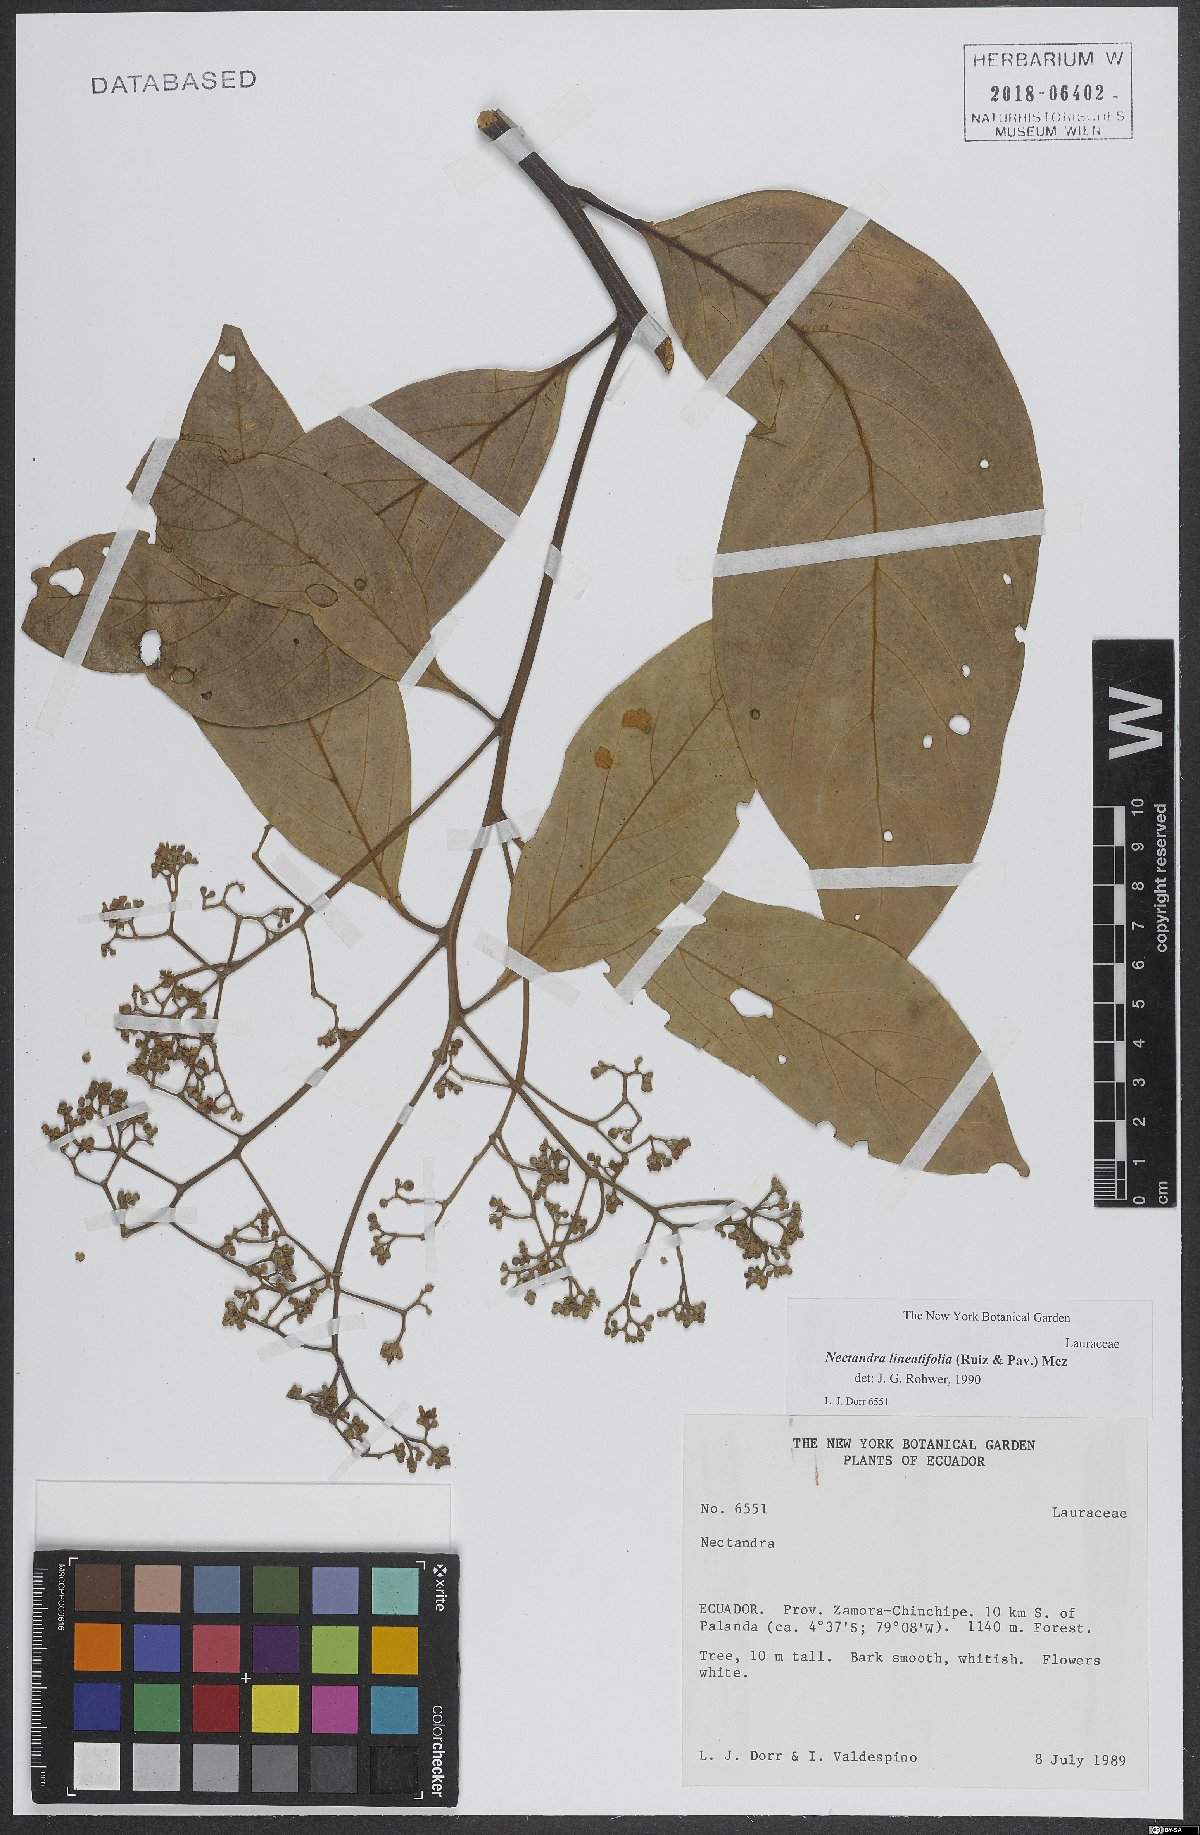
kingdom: Plantae
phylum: Tracheophyta
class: Magnoliopsida
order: Laurales
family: Lauraceae
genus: Nectandra
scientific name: Nectandra lineatifolia
